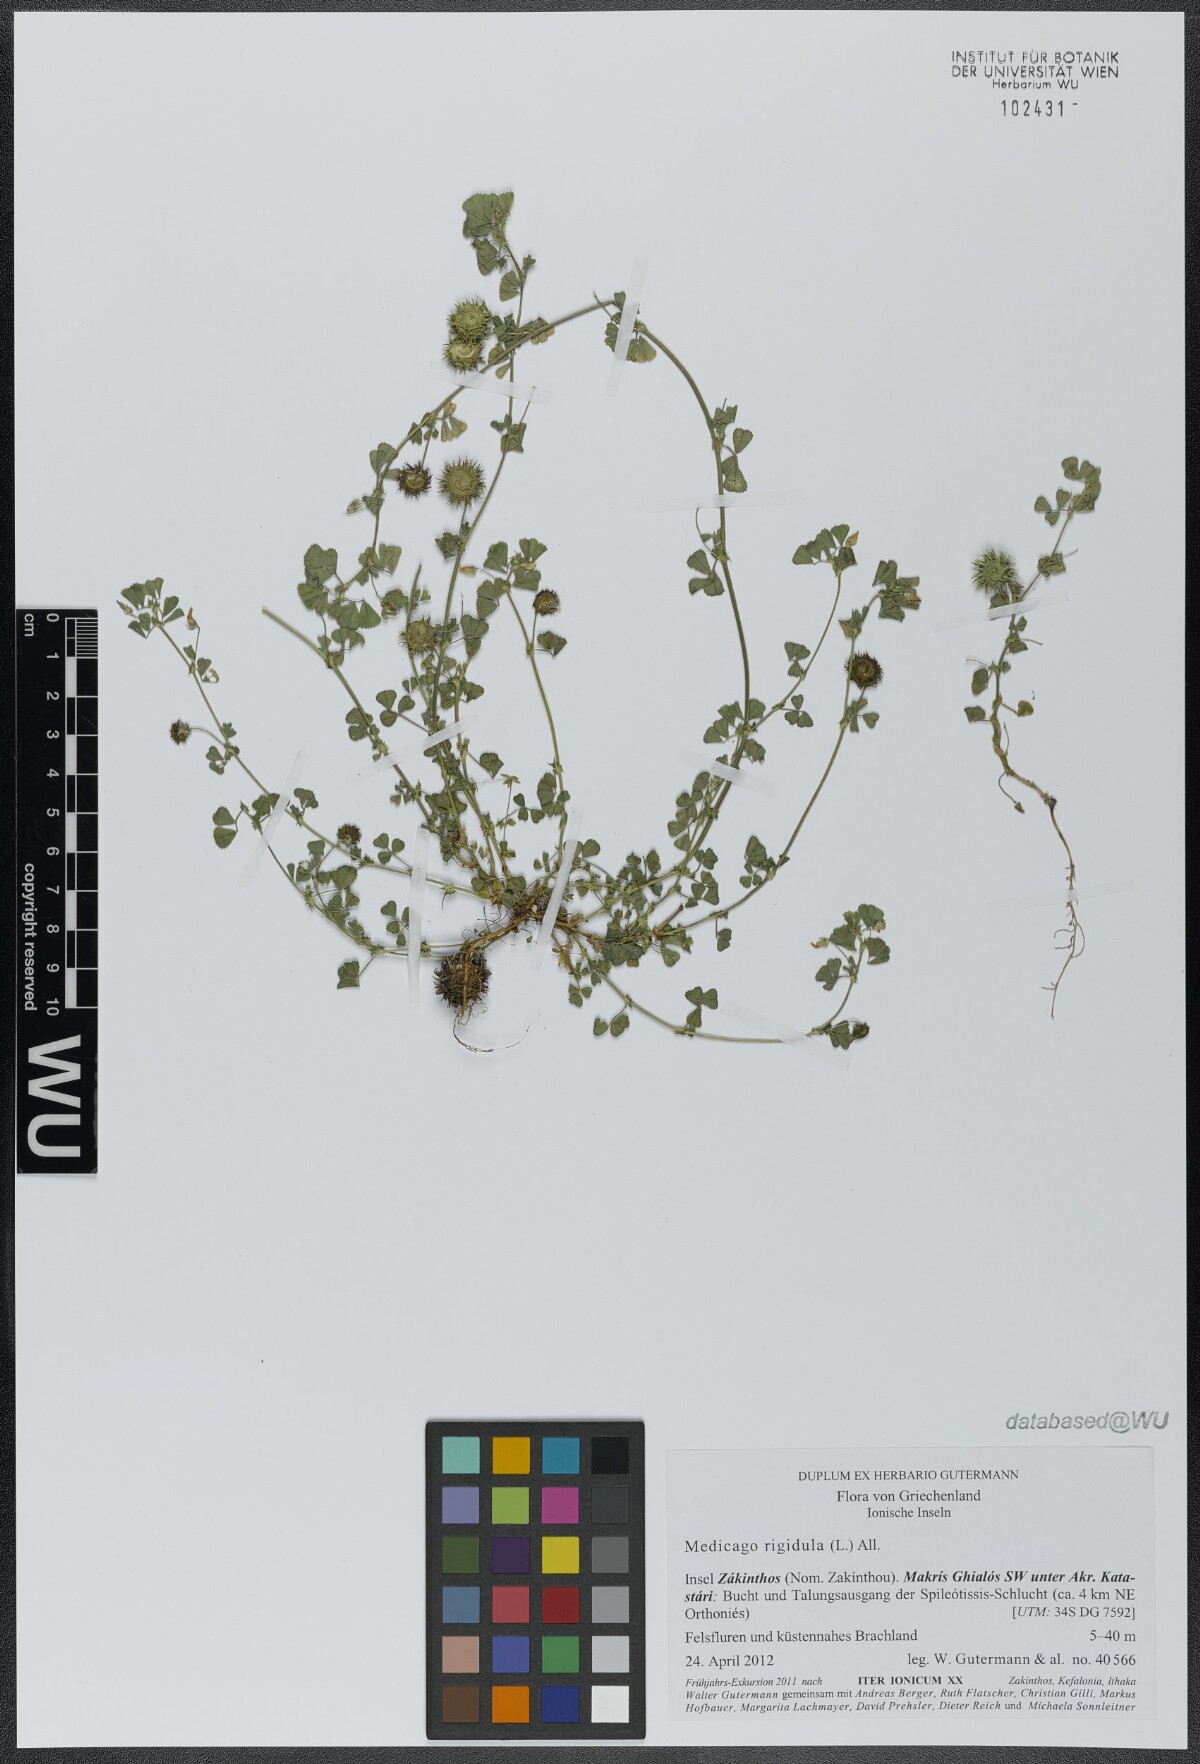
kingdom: Plantae
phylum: Tracheophyta
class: Magnoliopsida
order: Fabales
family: Fabaceae
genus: Medicago
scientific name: Medicago rigidula
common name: Tifton medic
